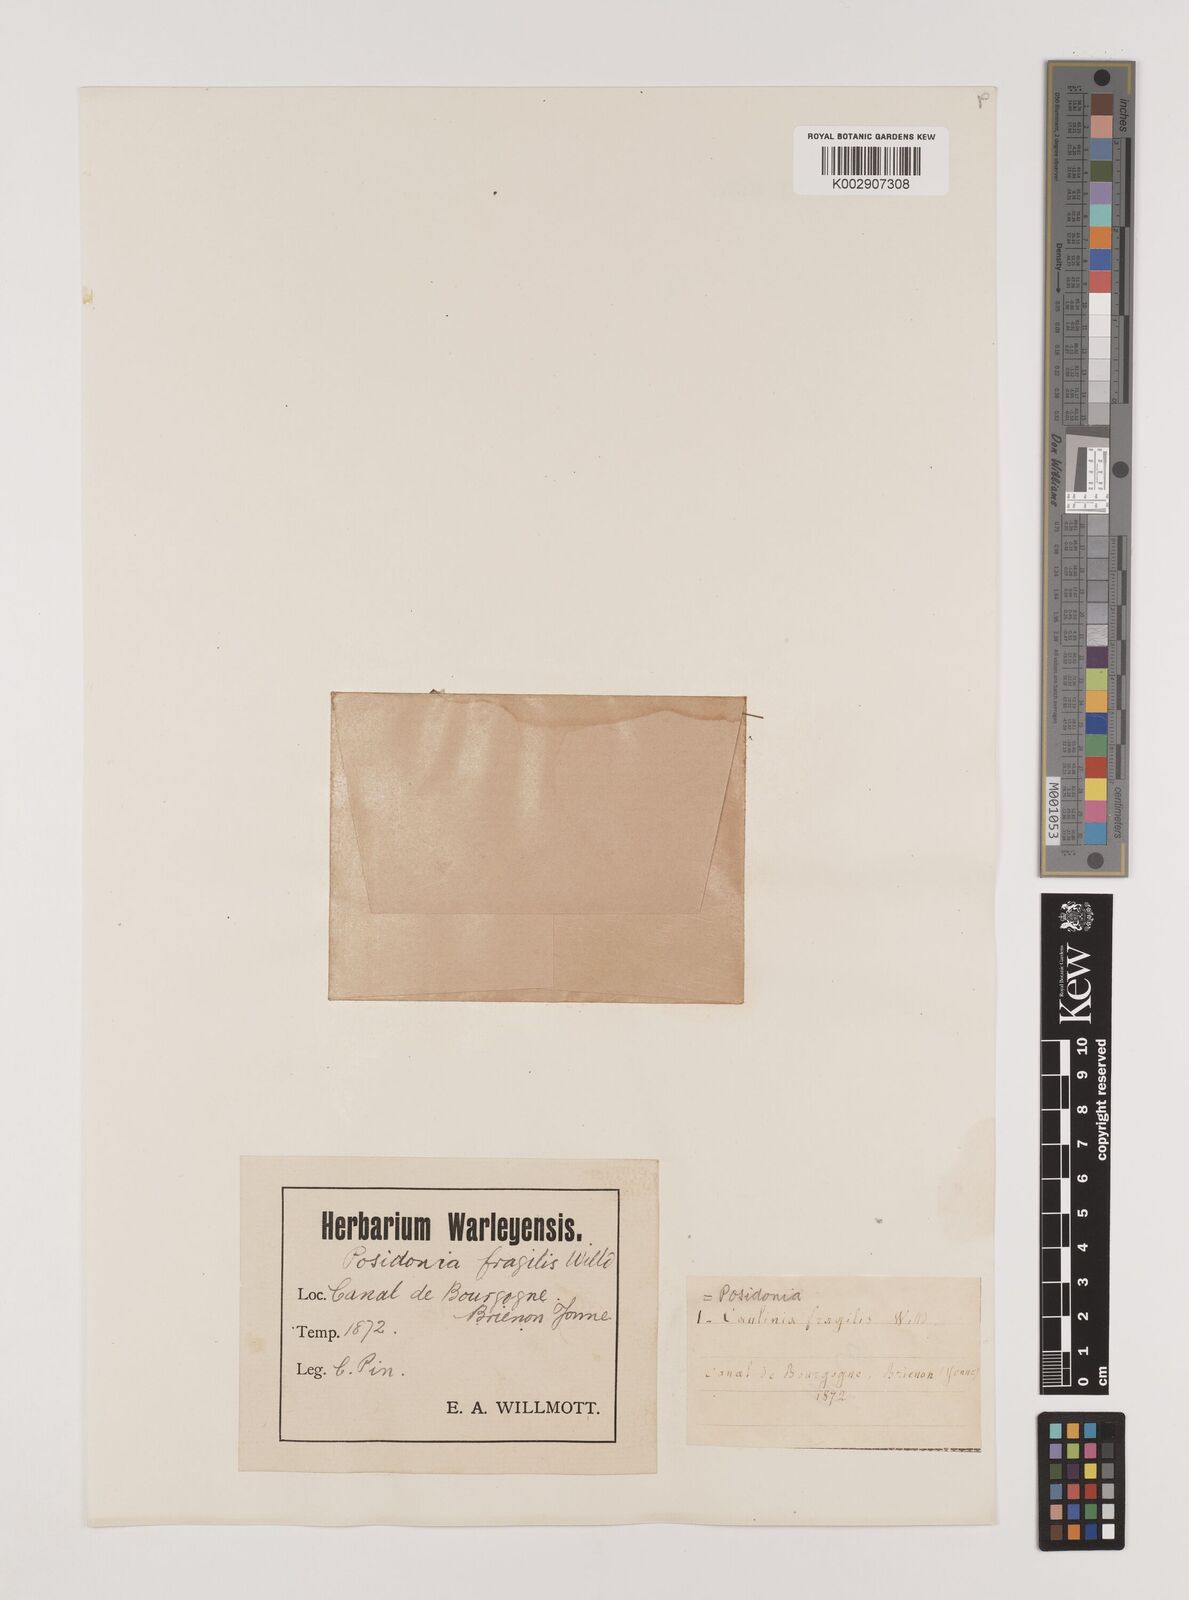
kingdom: Plantae
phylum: Tracheophyta
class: Liliopsida
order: Alismatales
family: Hydrocharitaceae
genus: Najas
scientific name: Najas minor
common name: Brittle naiad
